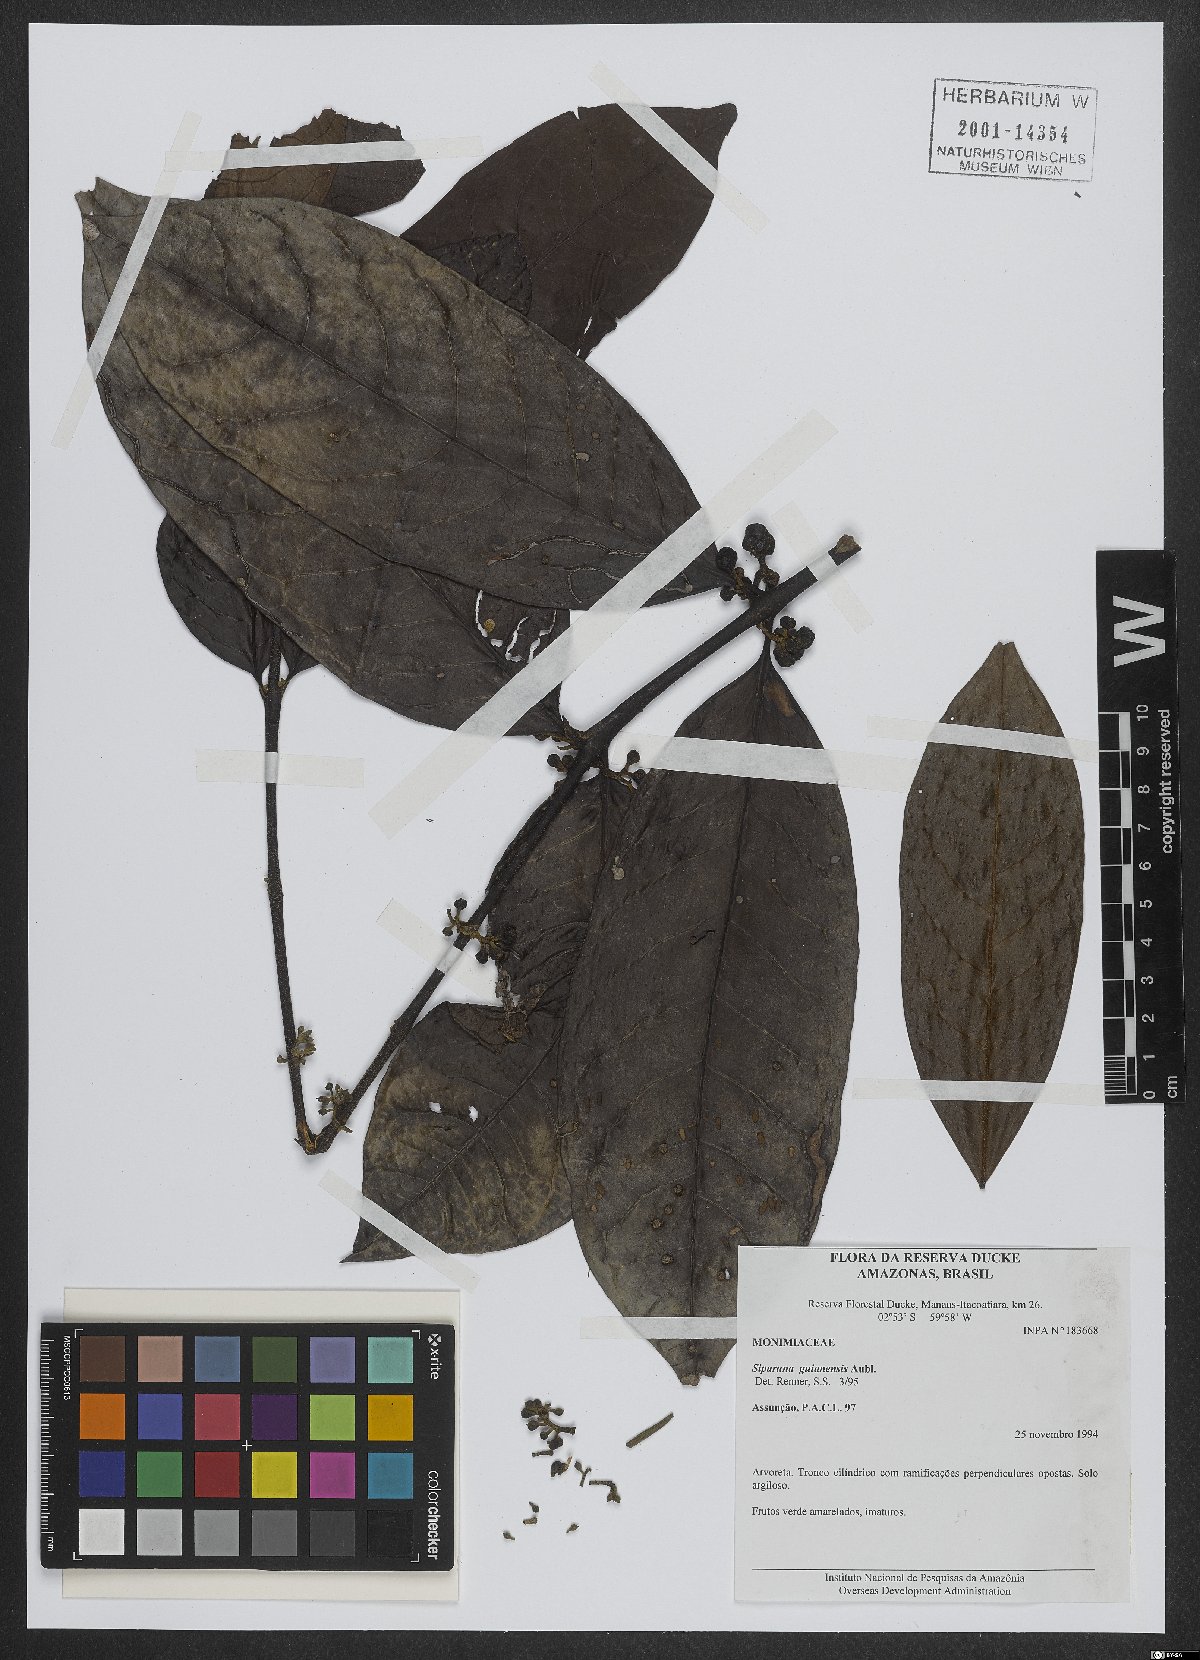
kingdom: Plantae
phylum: Tracheophyta
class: Magnoliopsida
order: Laurales
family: Siparunaceae
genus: Siparuna
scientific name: Siparuna guianensis
